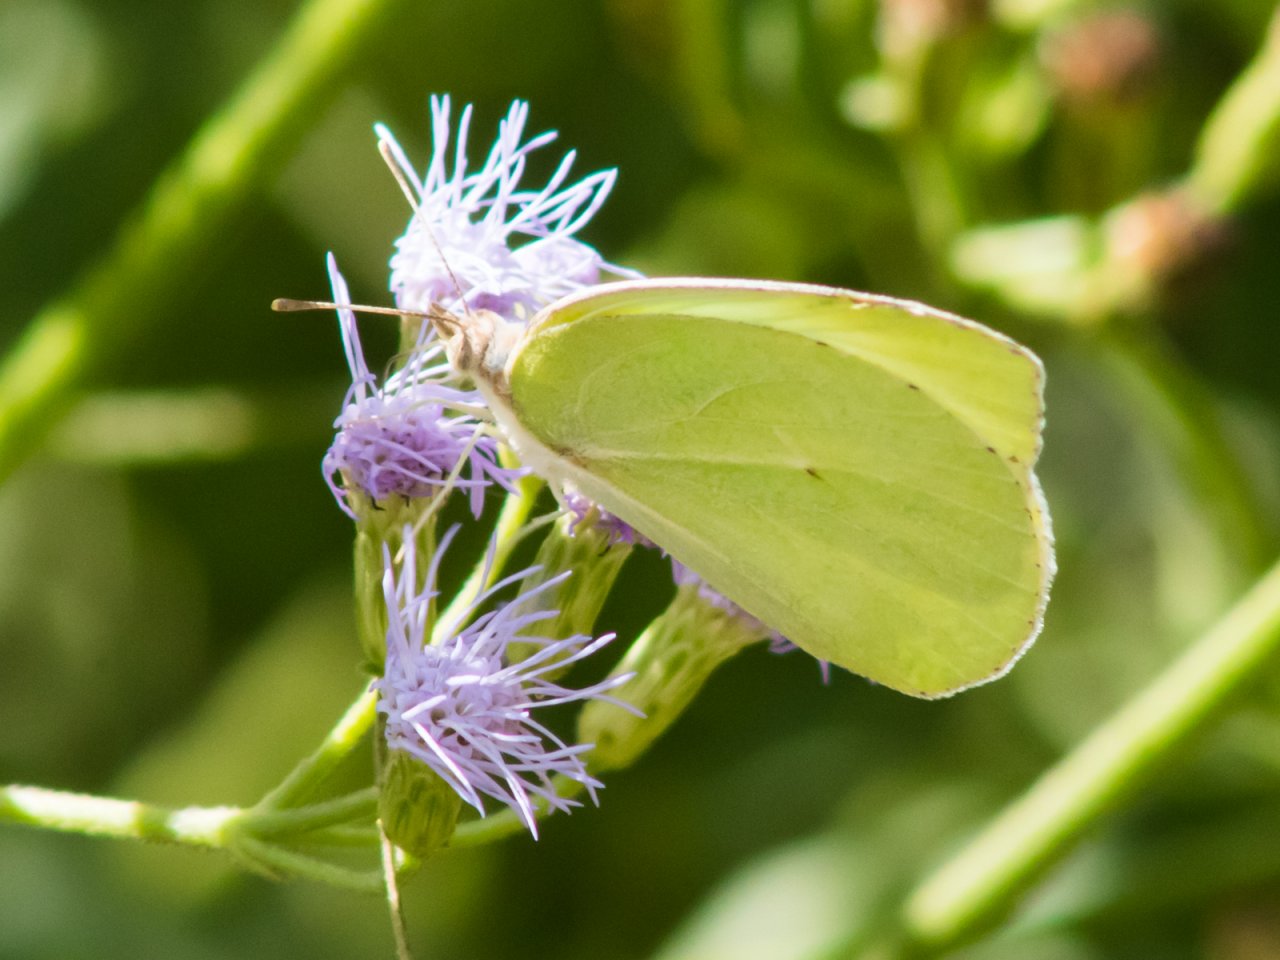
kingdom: Animalia
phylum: Arthropoda
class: Insecta
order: Lepidoptera
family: Pieridae
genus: Kricogonia
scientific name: Kricogonia lyside
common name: Lyside Sulphur
